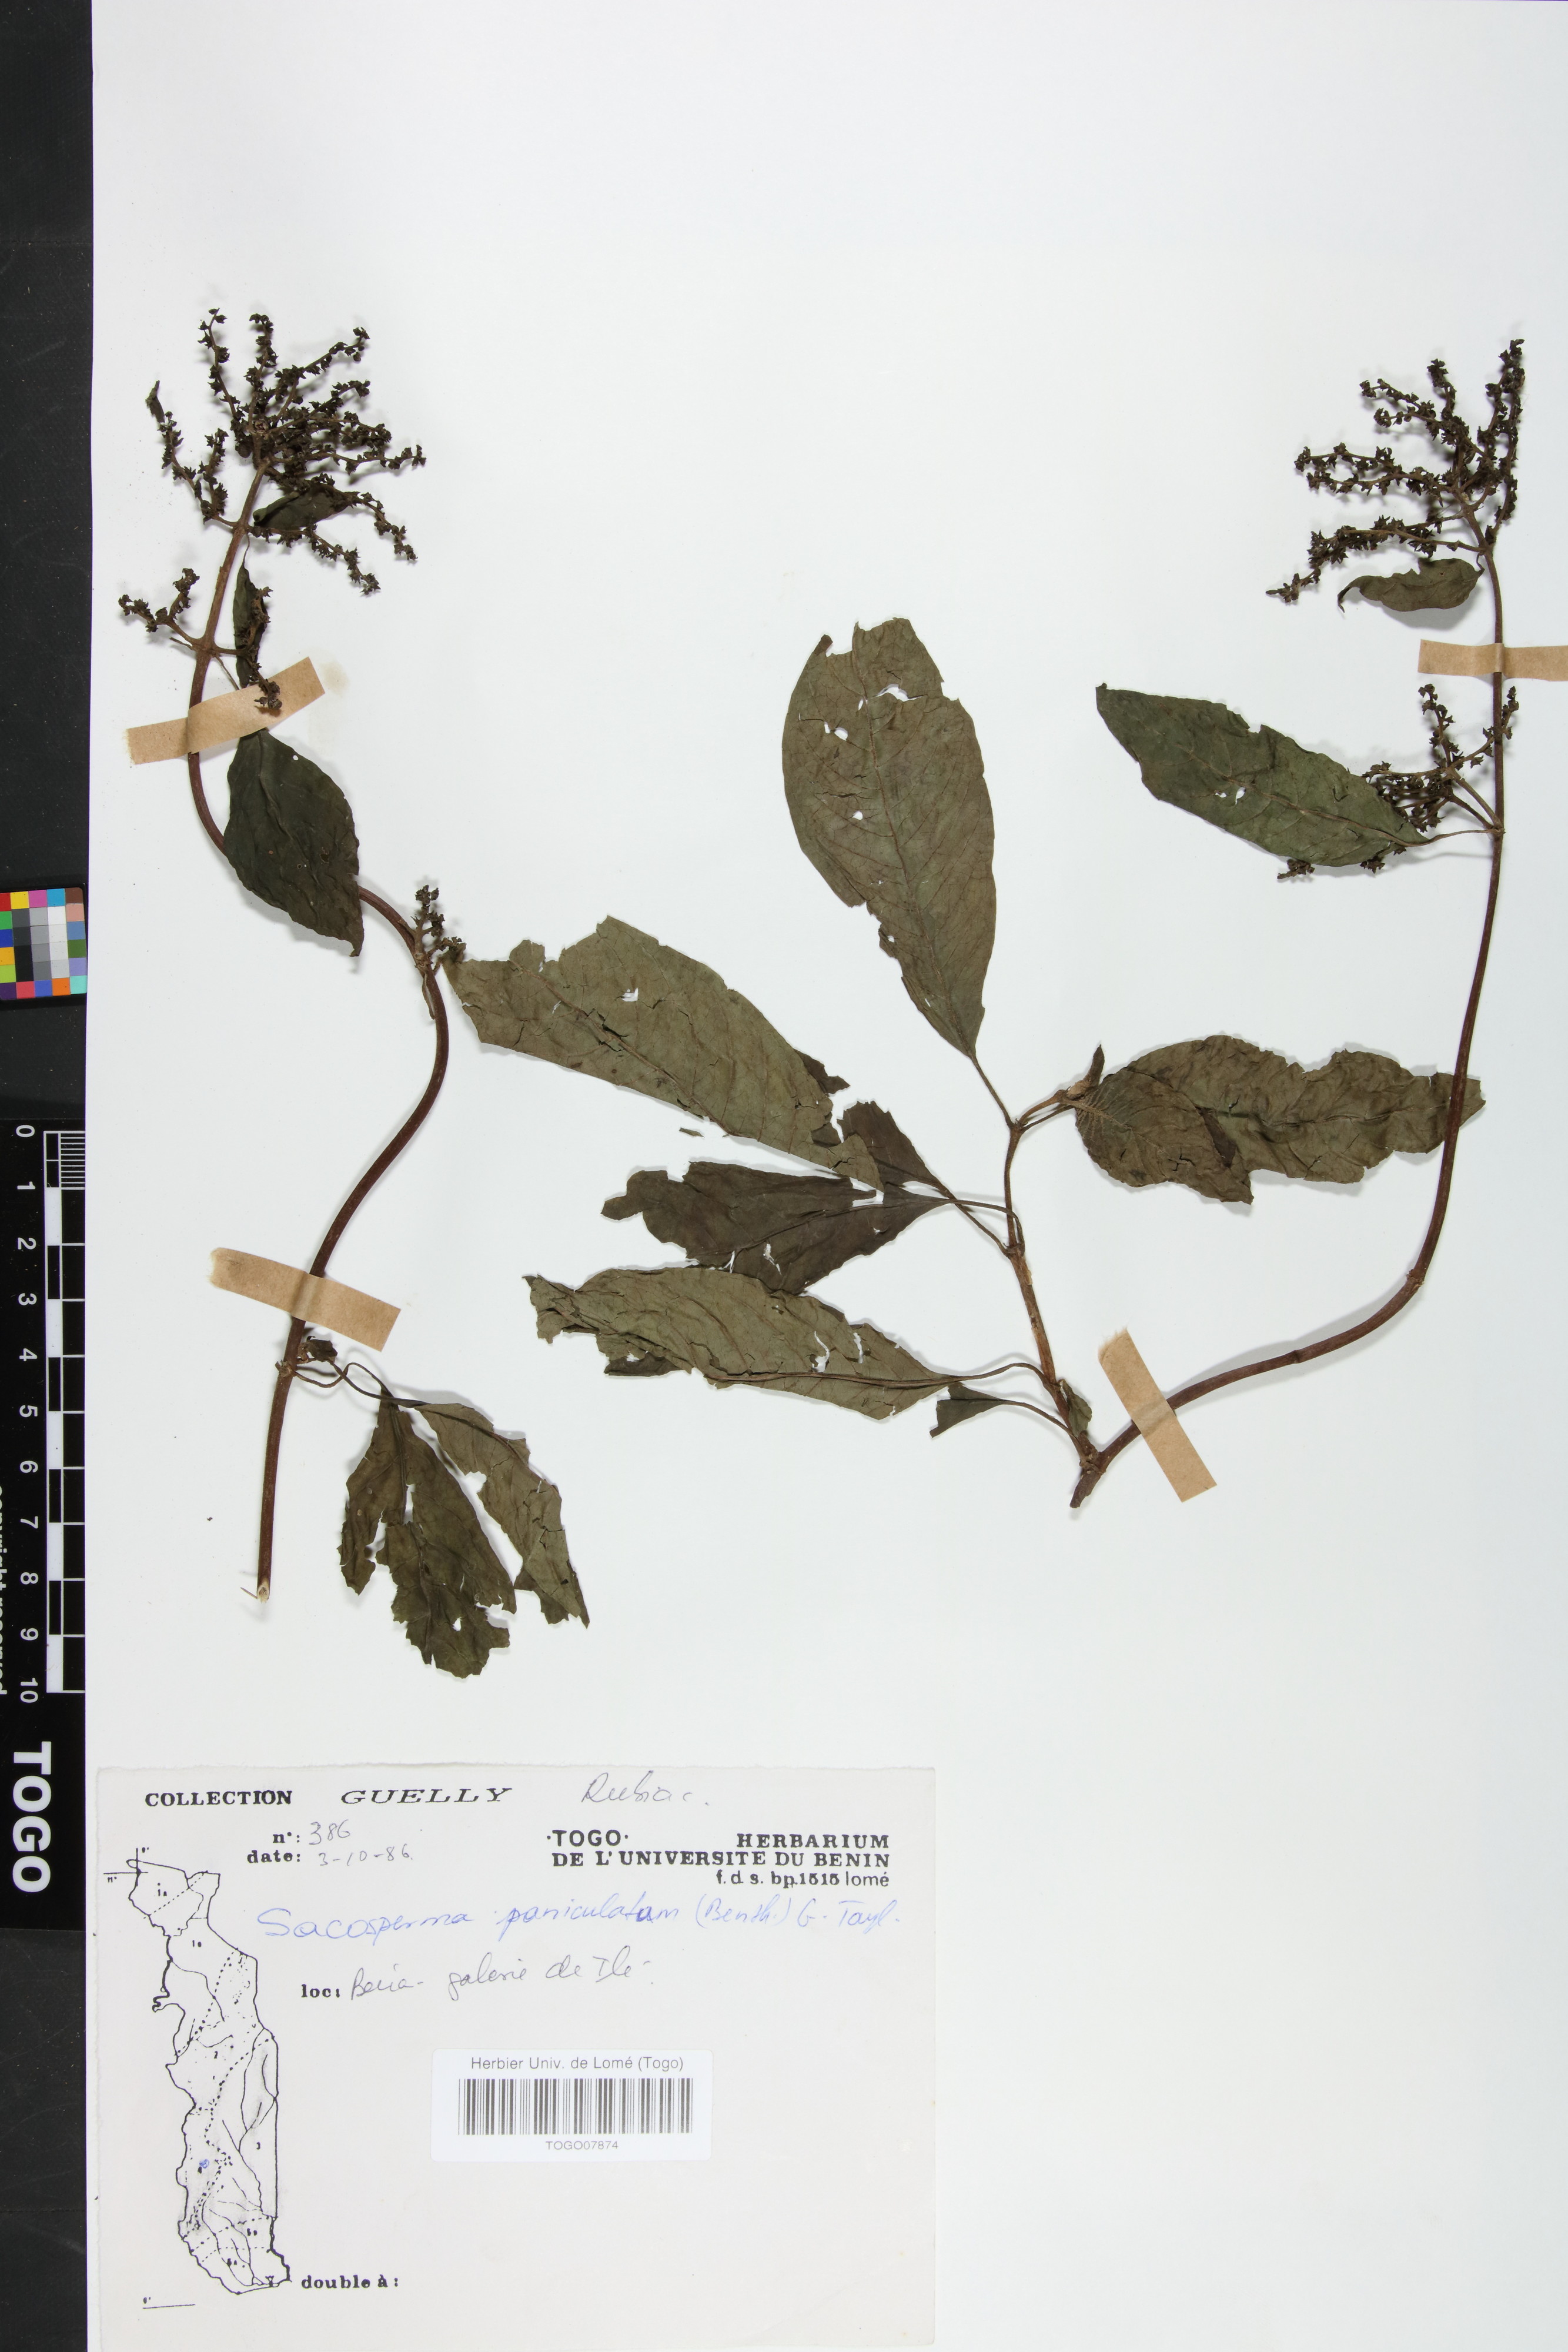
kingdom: Plantae
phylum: Tracheophyta
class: Magnoliopsida
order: Gentianales
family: Rubiaceae
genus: Sacosperma
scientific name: Sacosperma paniculatum
